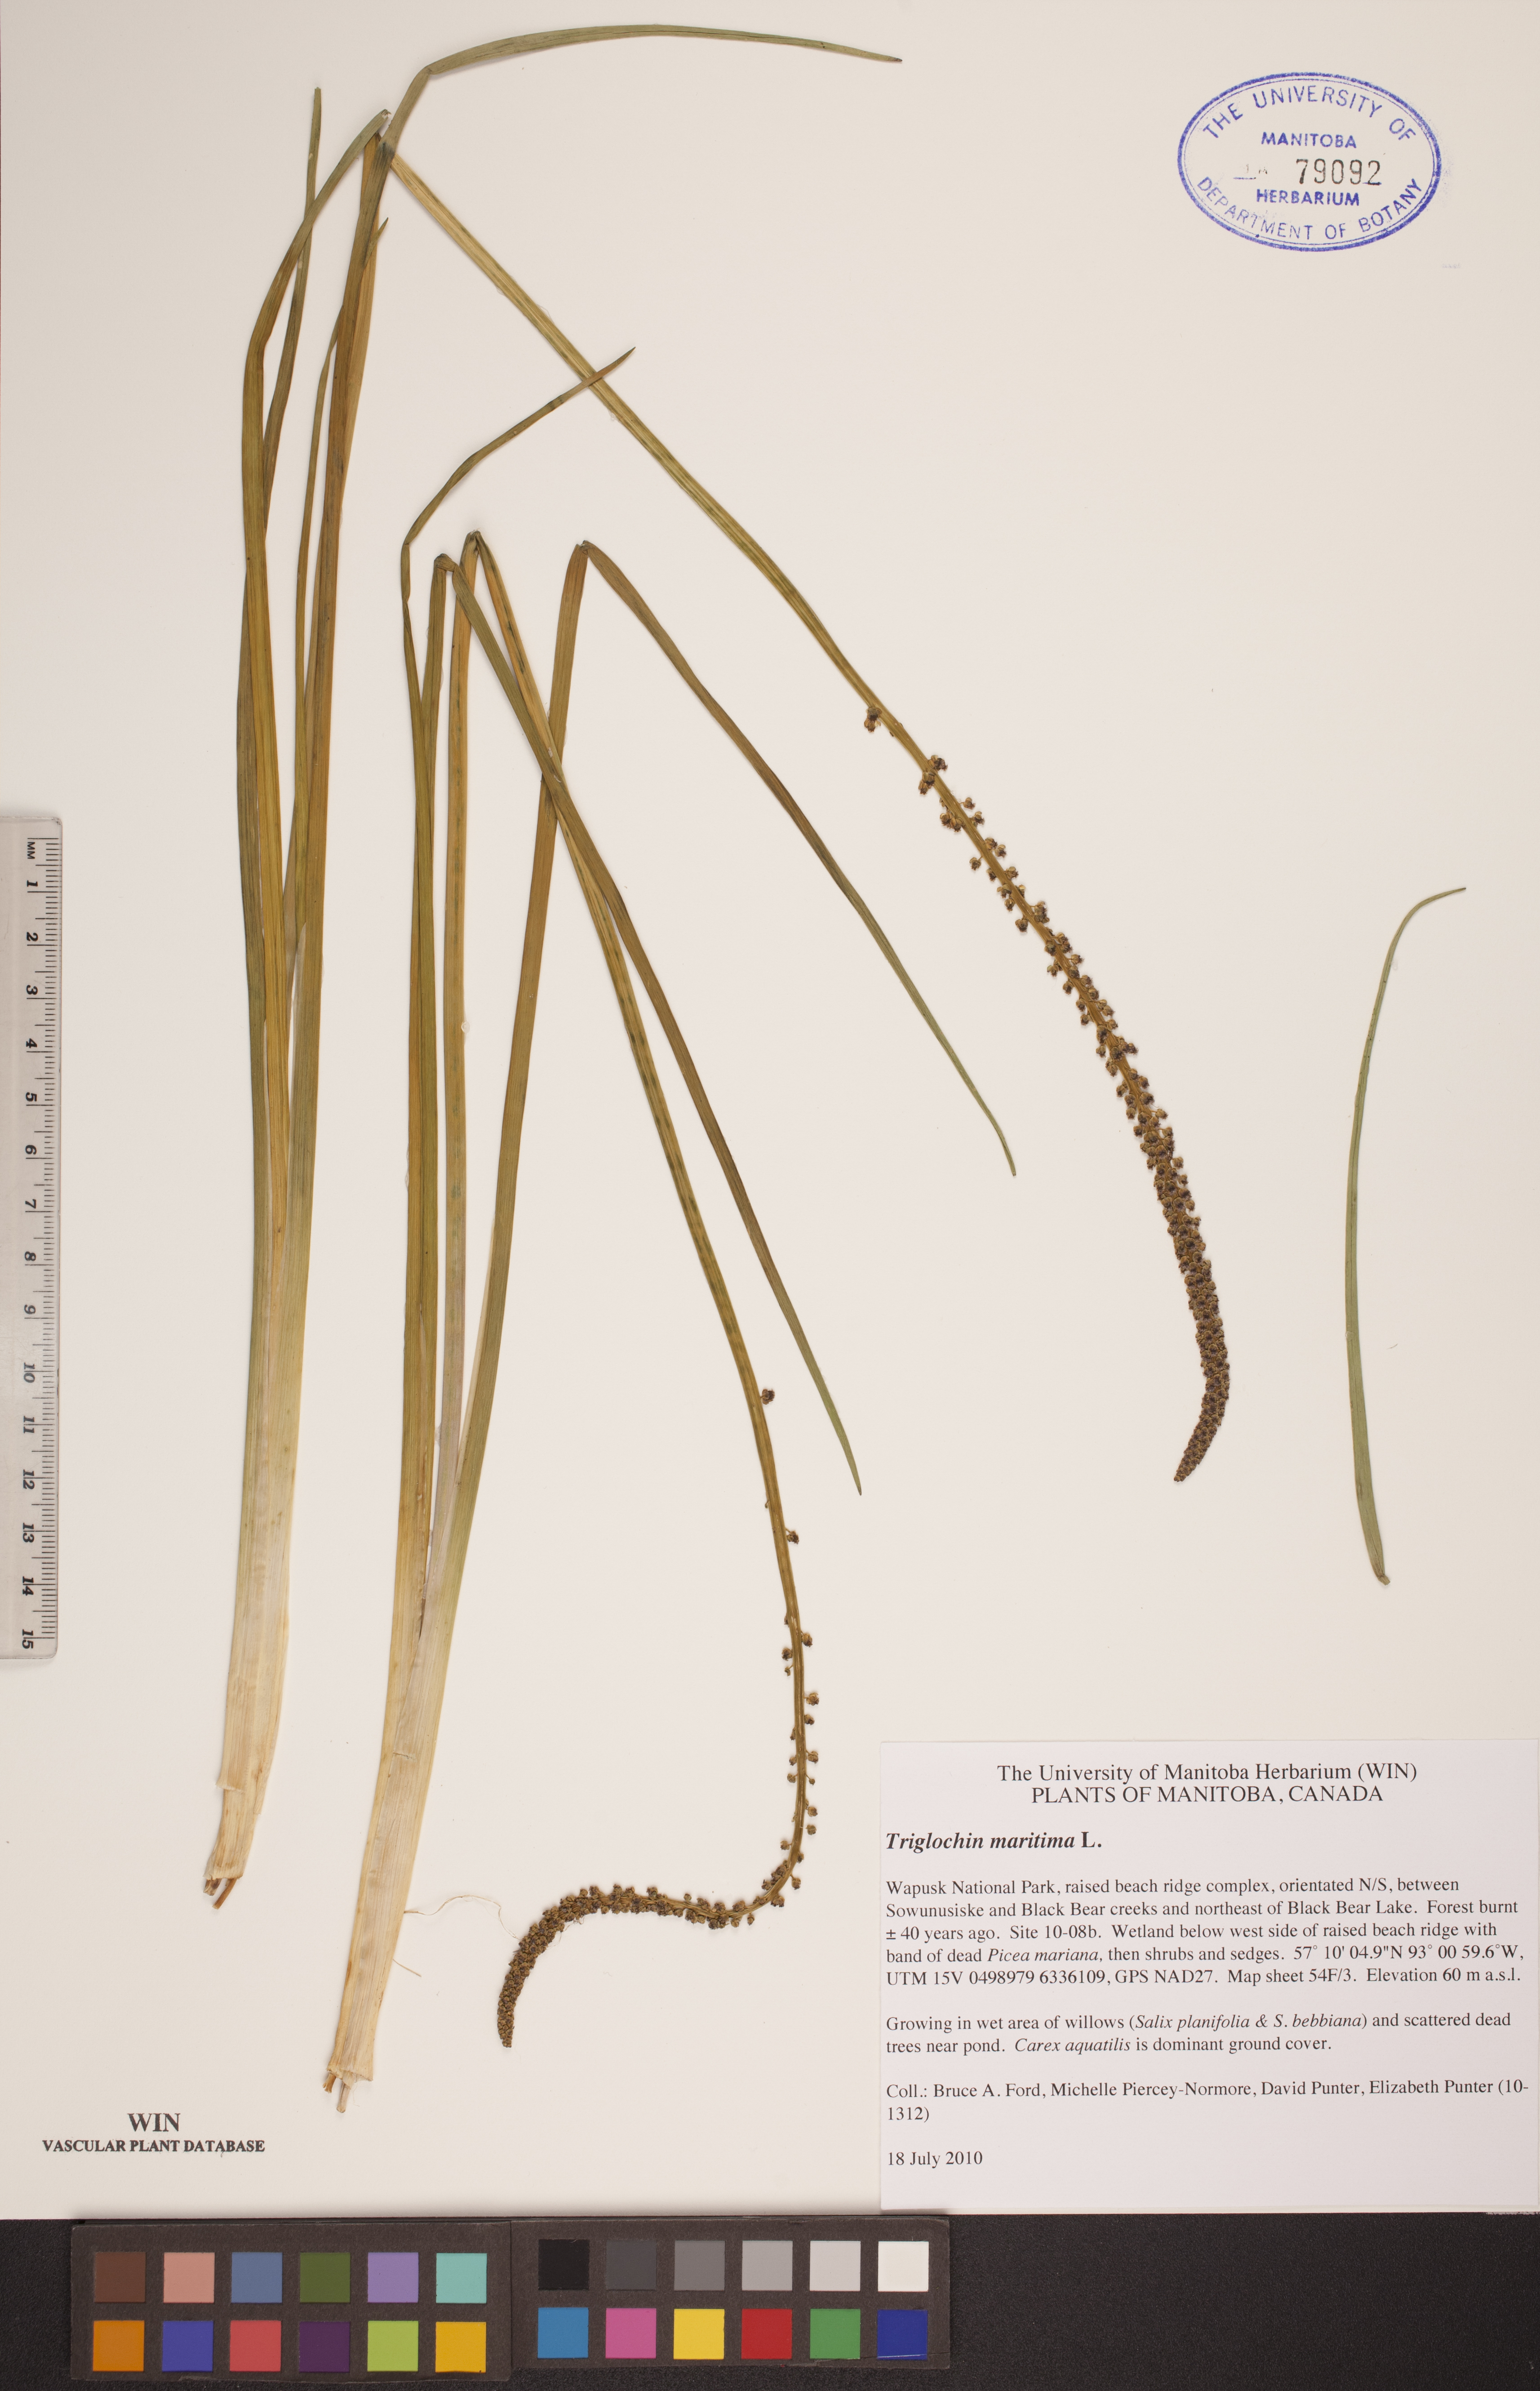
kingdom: Plantae
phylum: Tracheophyta
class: Liliopsida
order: Alismatales
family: Juncaginaceae
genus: Triglochin
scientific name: Triglochin maritima
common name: Sea arrowgrass
